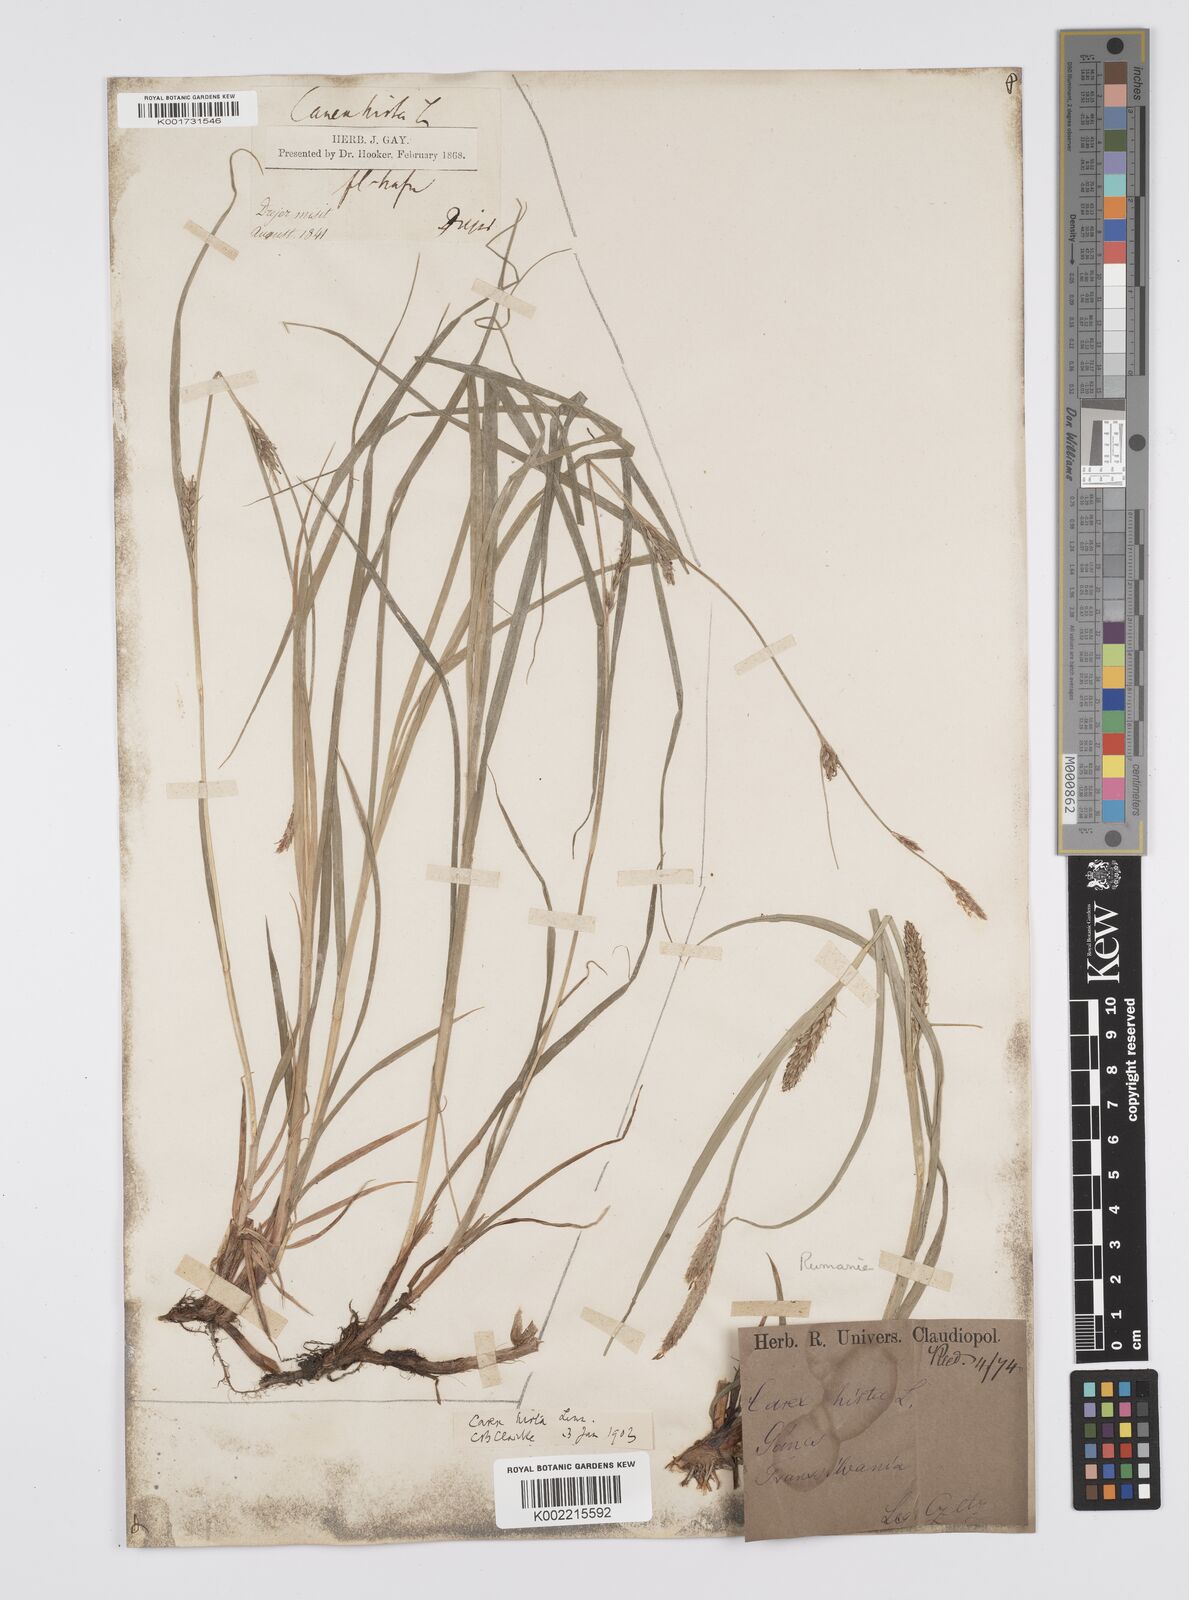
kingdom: Plantae
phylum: Tracheophyta
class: Liliopsida
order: Poales
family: Cyperaceae
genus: Carex
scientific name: Carex hirta
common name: Hairy sedge
